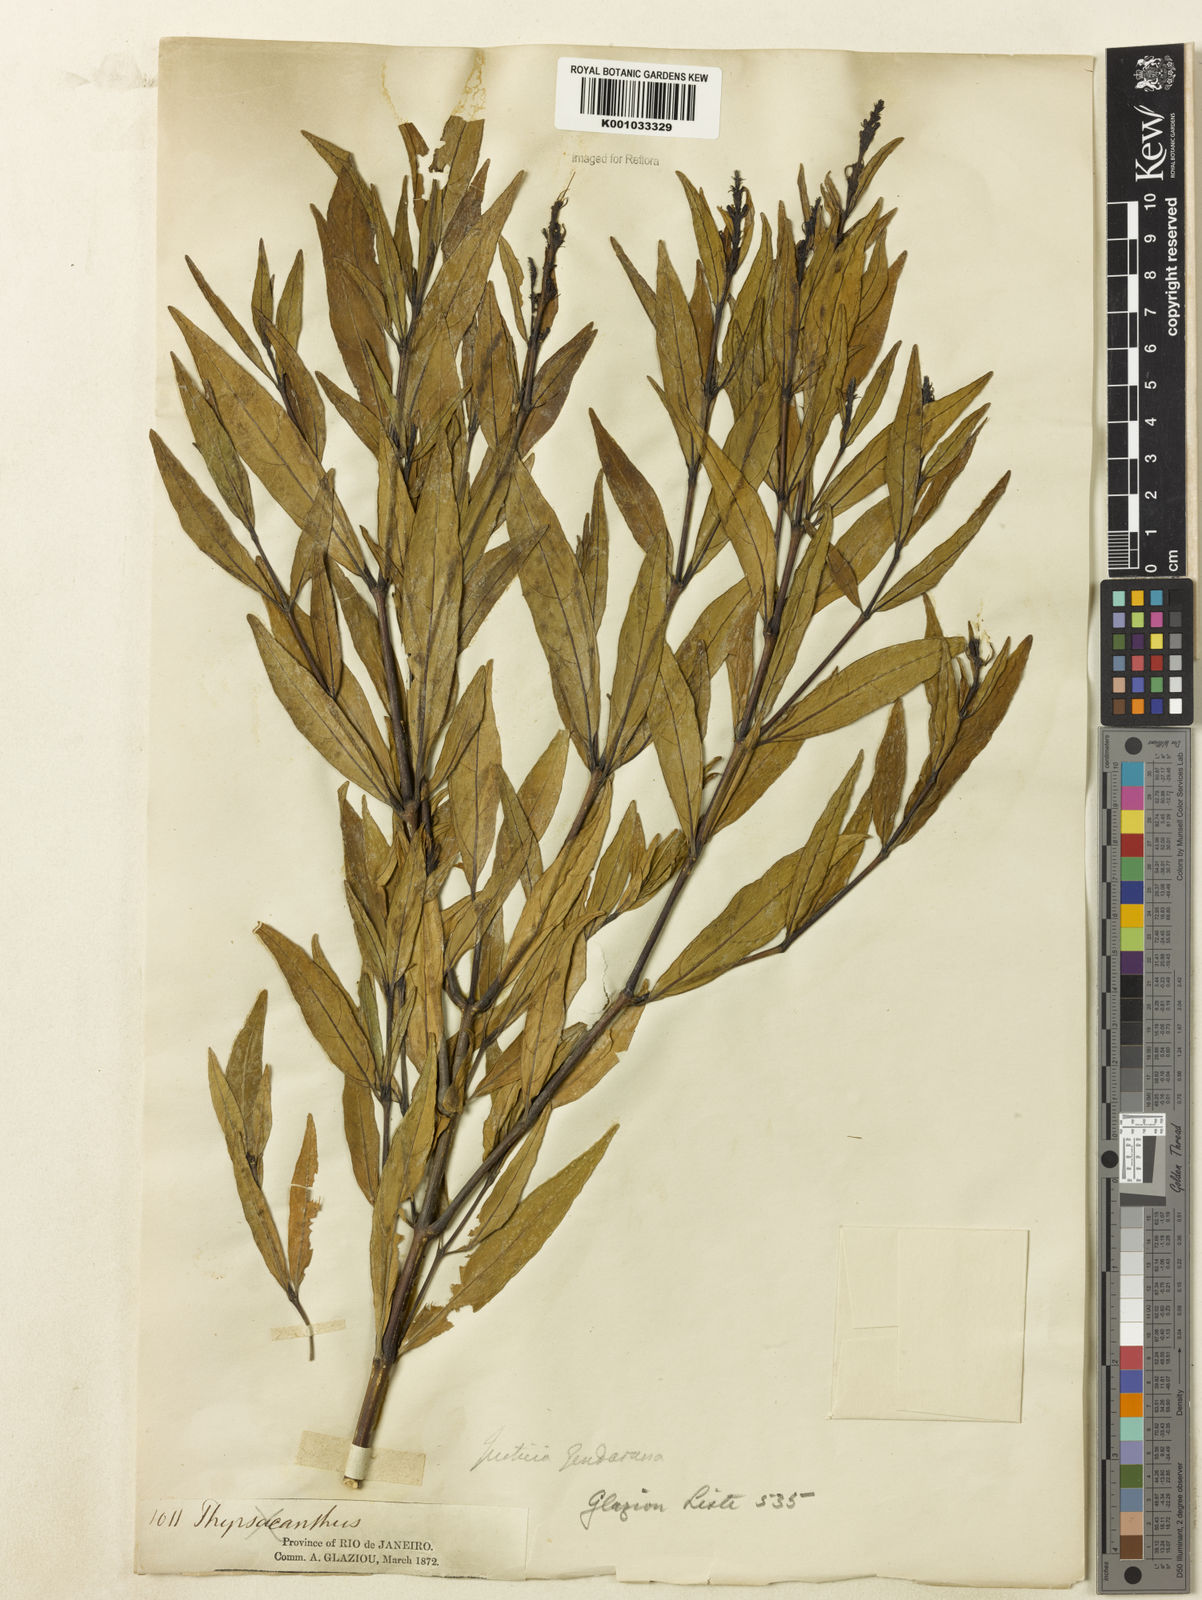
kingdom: Plantae
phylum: Tracheophyta
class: Magnoliopsida
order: Lamiales
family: Acanthaceae
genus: Justicia
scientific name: Justicia gendarussa
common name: Warer willow
